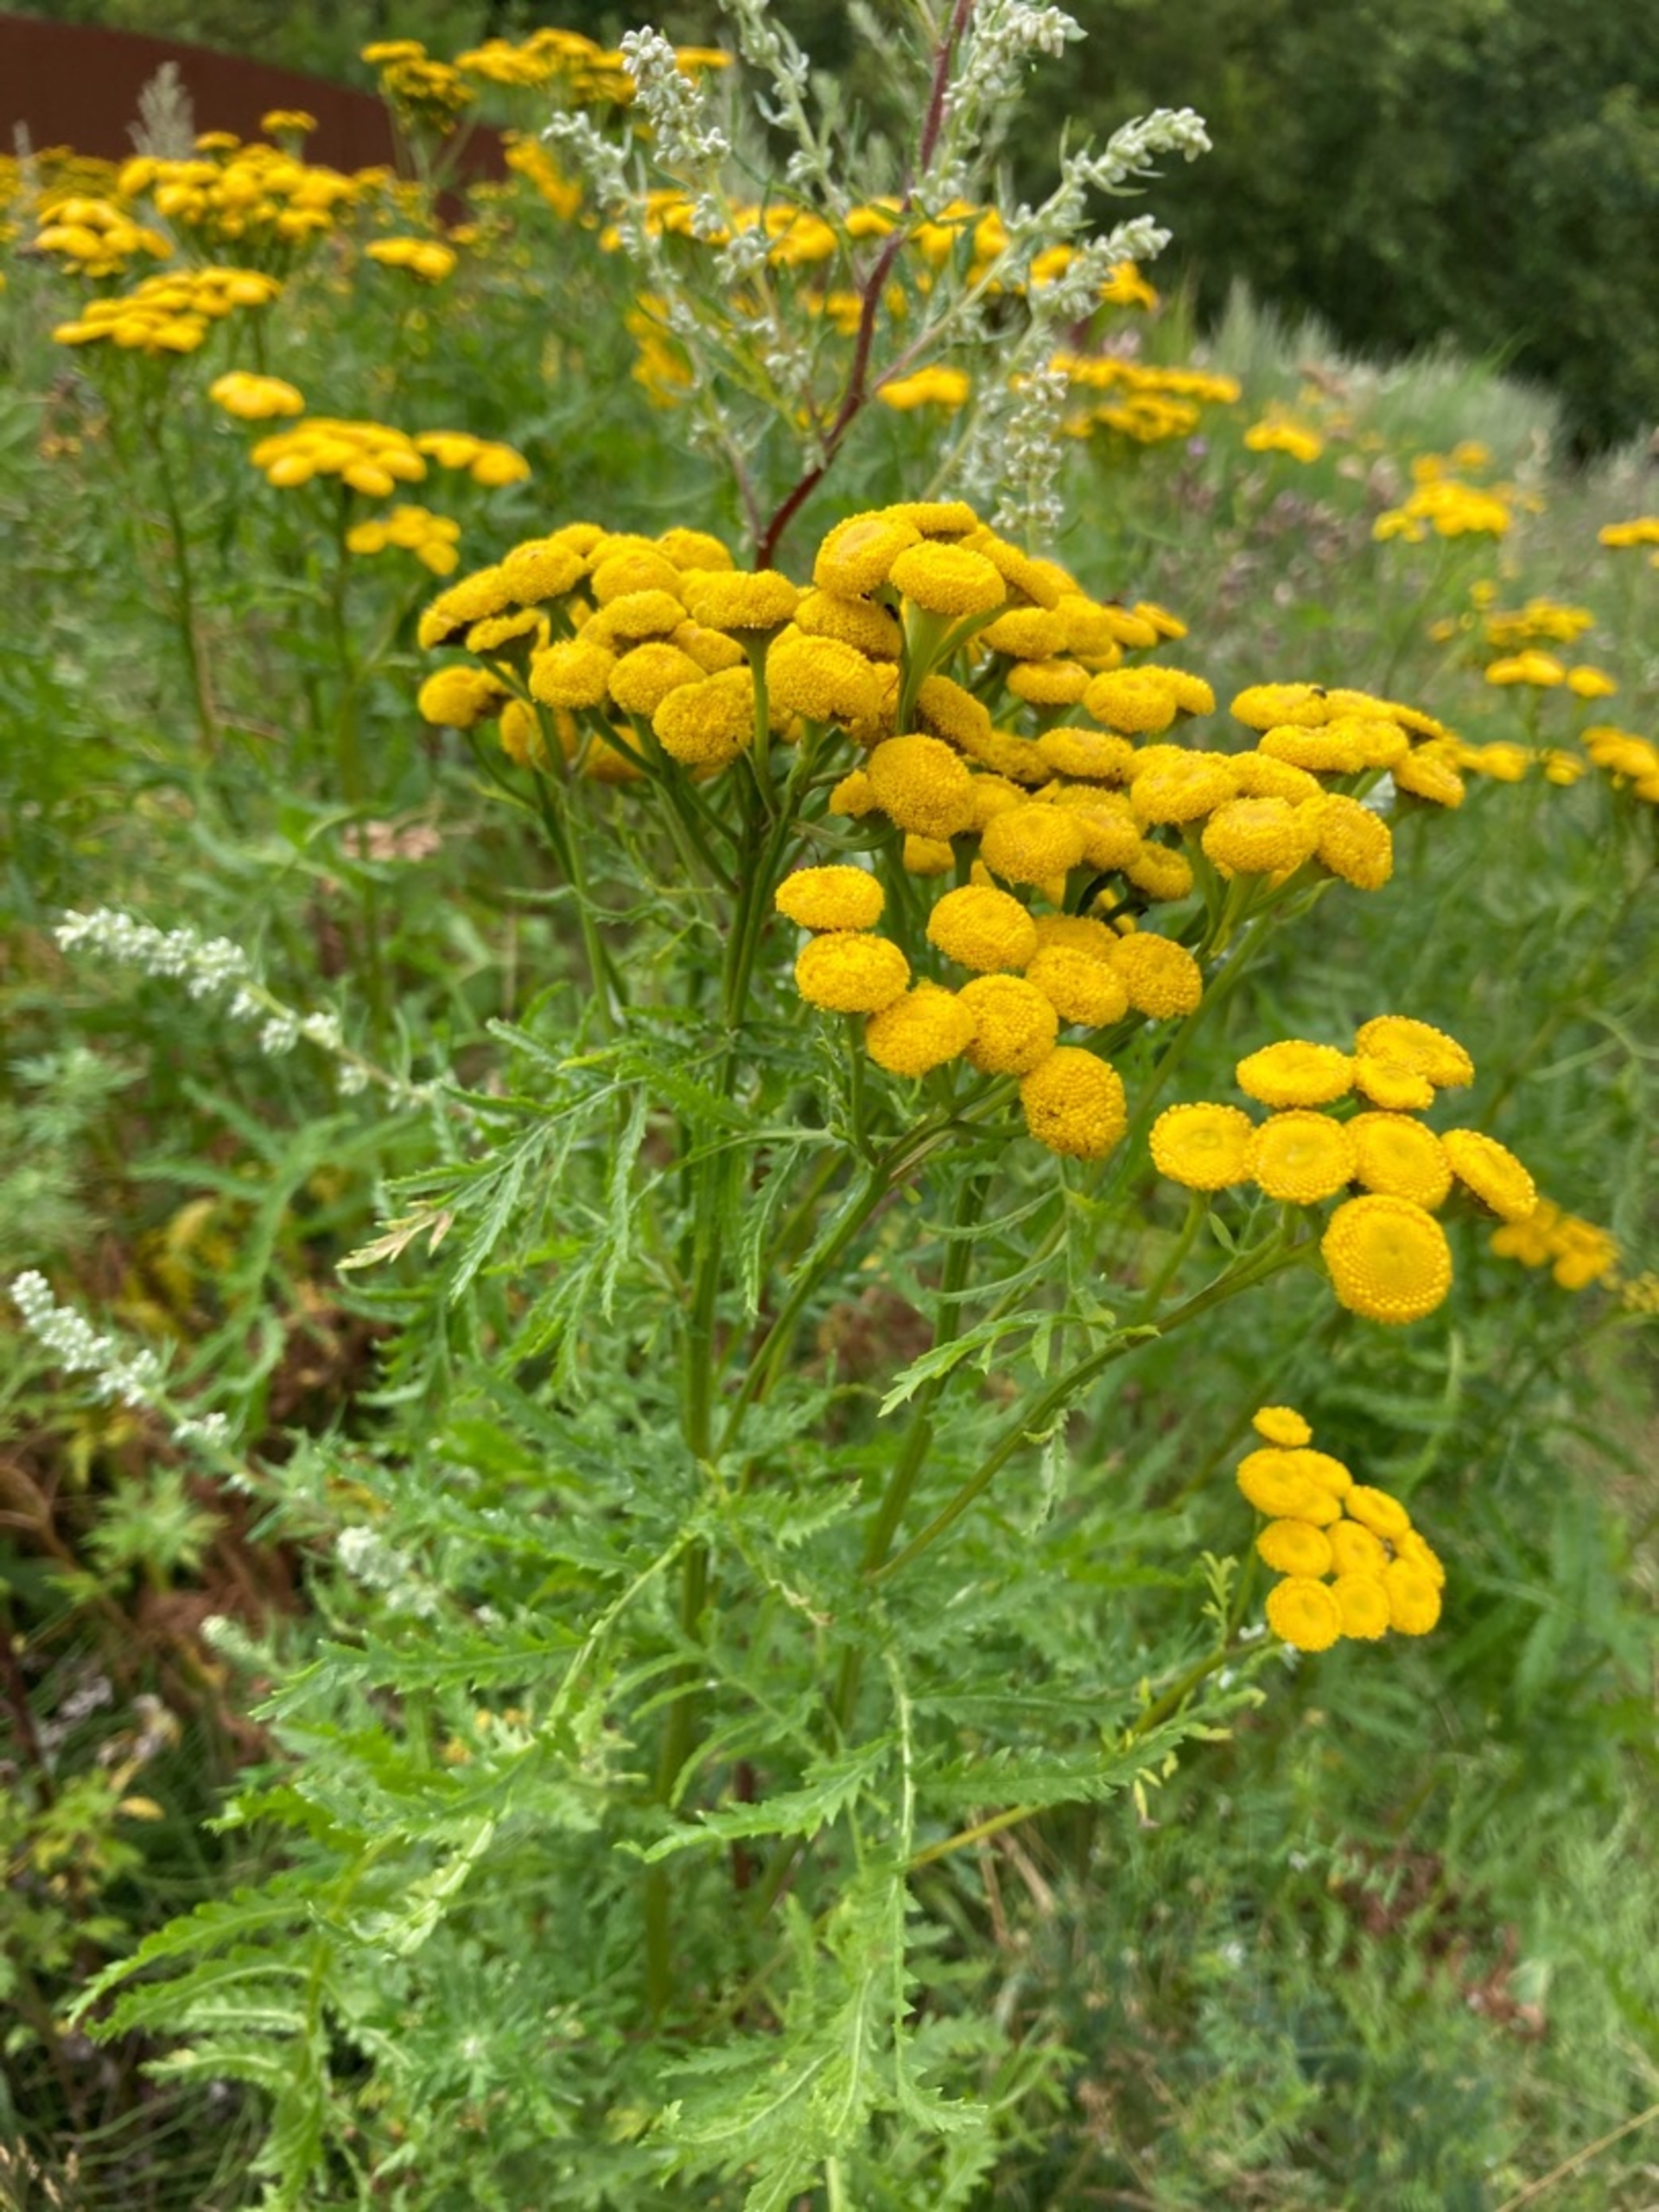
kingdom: Plantae
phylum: Tracheophyta
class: Magnoliopsida
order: Asterales
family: Asteraceae
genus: Tanacetum
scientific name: Tanacetum vulgare
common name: Rejnfan
